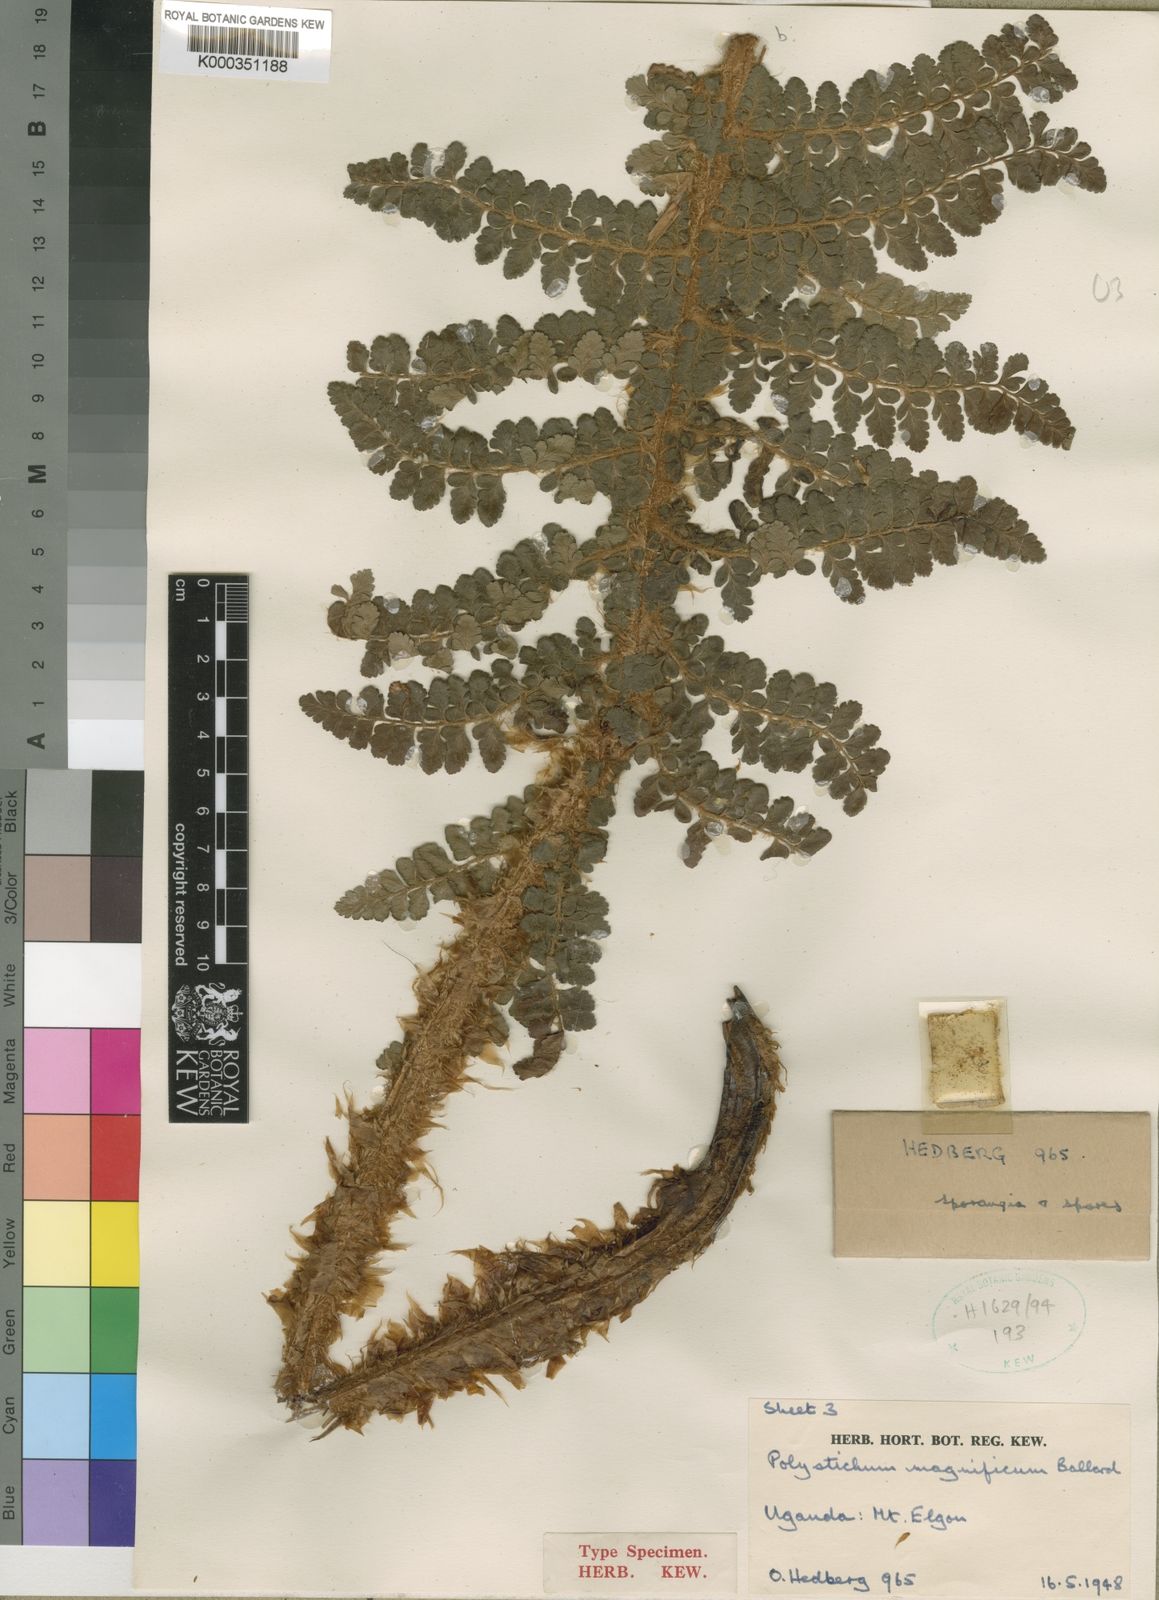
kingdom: Plantae
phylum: Tracheophyta
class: Polypodiopsida
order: Polypodiales
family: Dryopteridaceae
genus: Polystichum
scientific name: Polystichum magnificum
